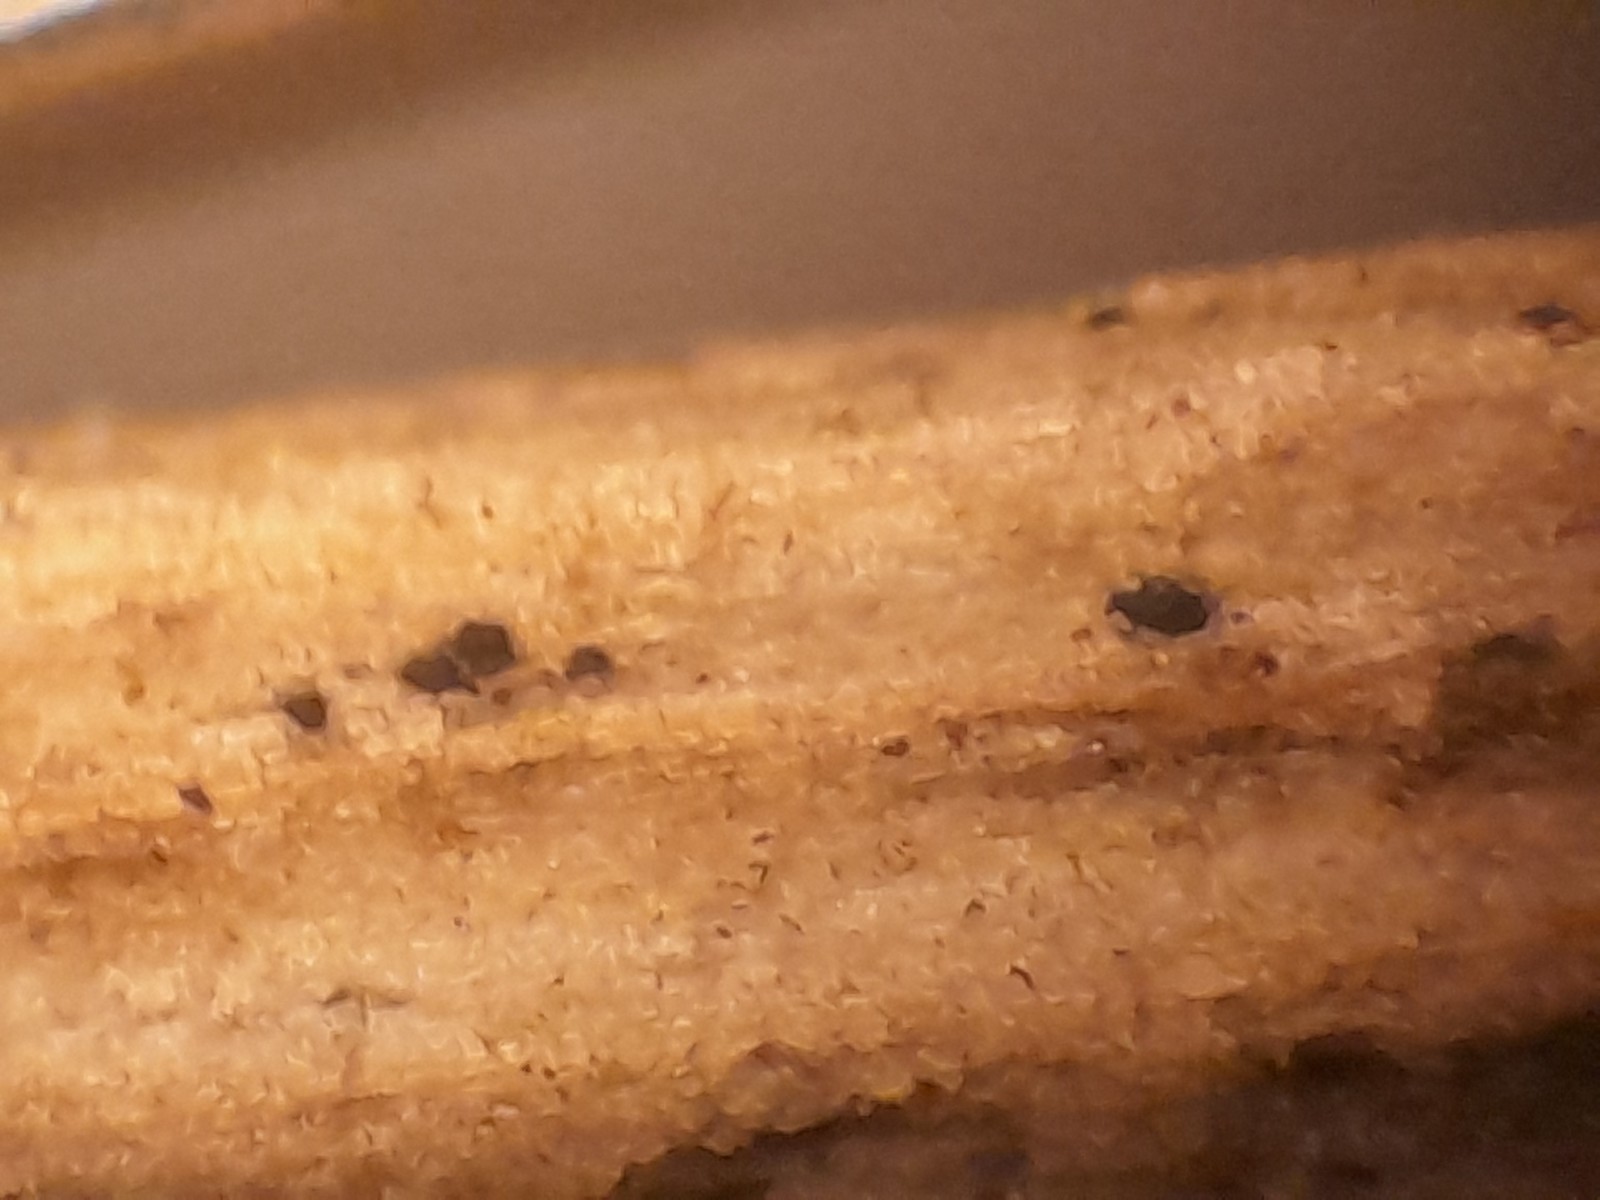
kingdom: Fungi
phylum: Ascomycota
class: Dothideomycetes
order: Pleosporales
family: Pleosporaceae
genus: Pleospora
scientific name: Pleospora vitalbae
